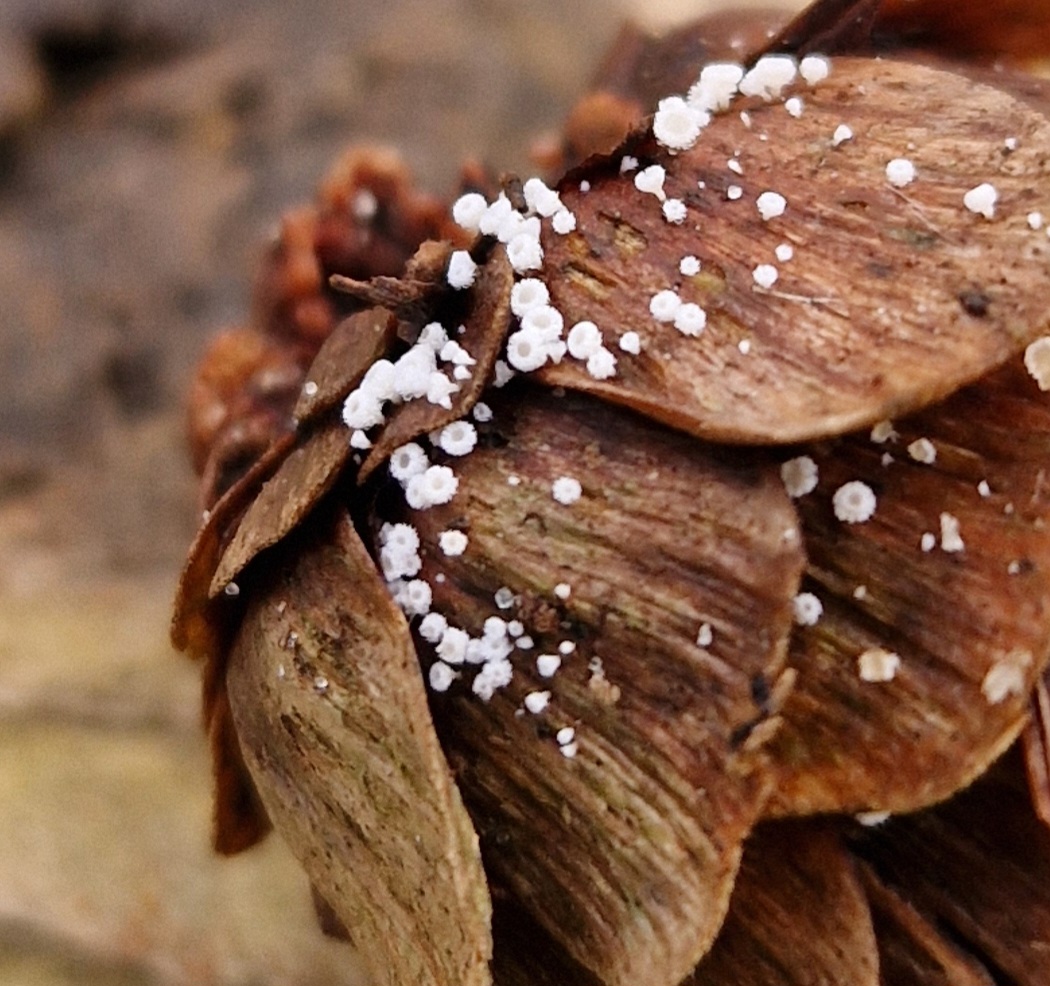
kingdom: Fungi
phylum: Ascomycota
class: Leotiomycetes
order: Helotiales
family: Lachnaceae
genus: Lachnum
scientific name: Lachnum virgineum
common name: jomfru-frynseskive
